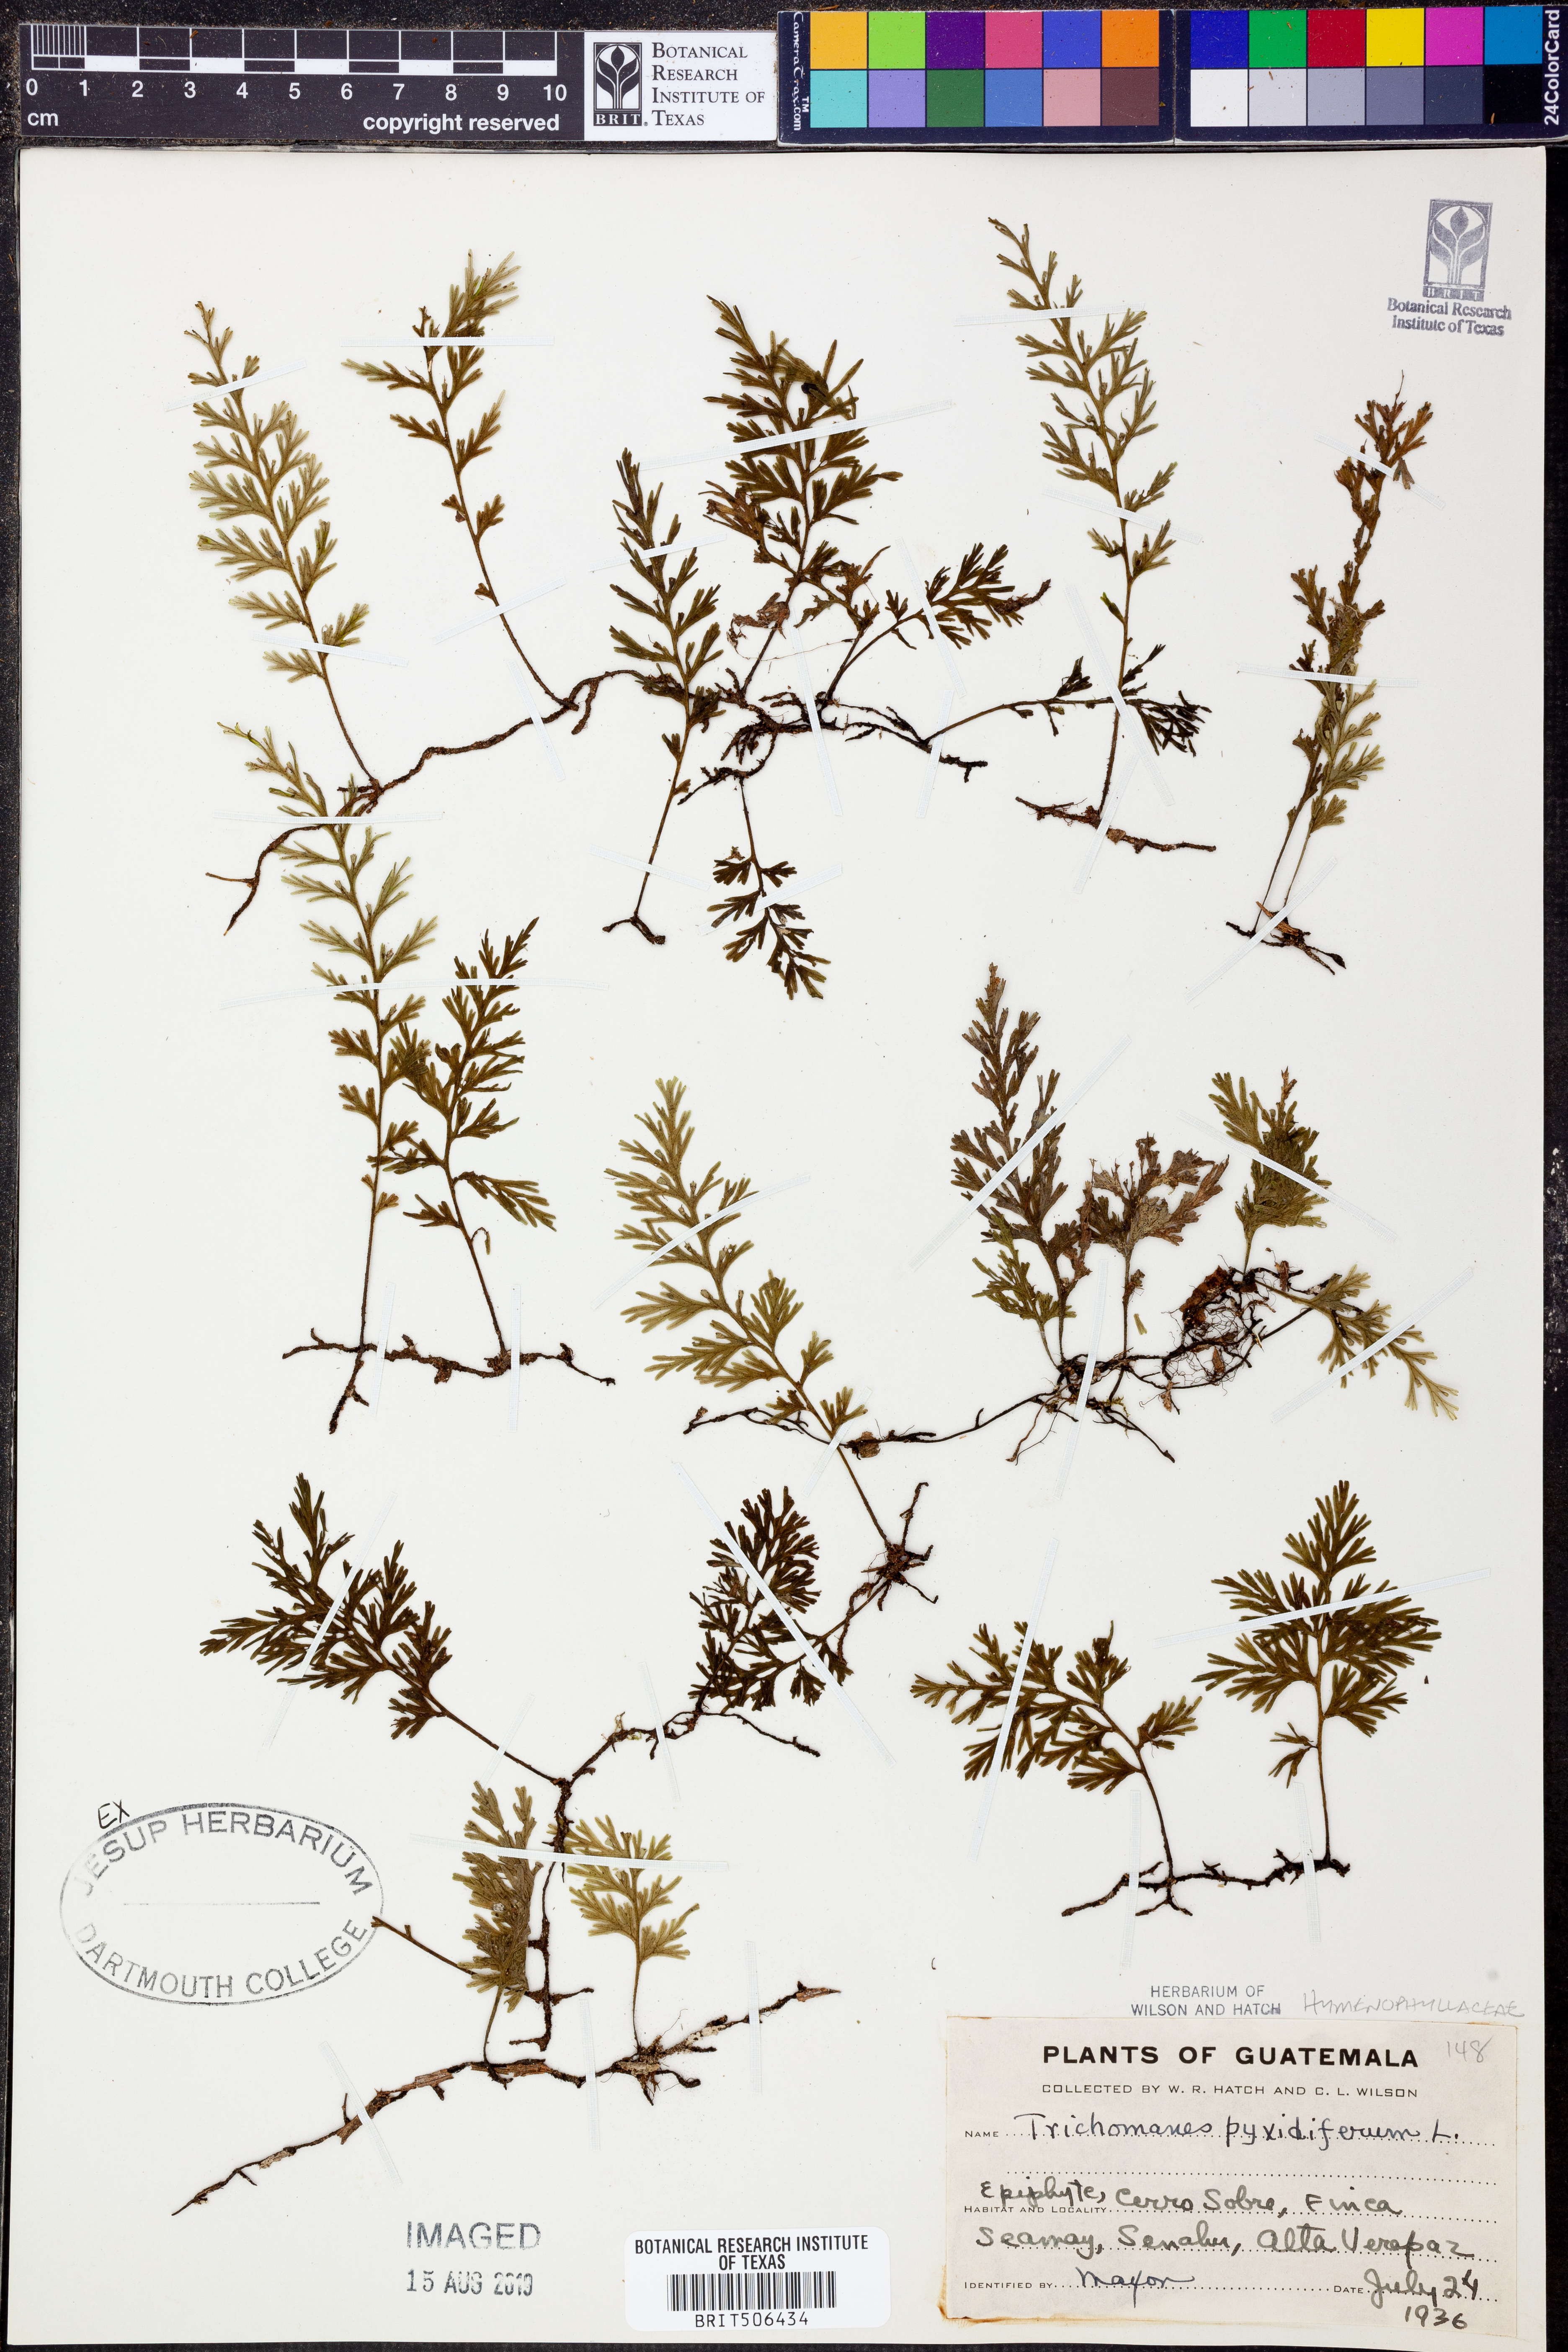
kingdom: Plantae
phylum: Tracheophyta
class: Polypodiopsida
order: Hymenophyllales
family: Hymenophyllaceae
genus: Polyphlebium
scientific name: Polyphlebium capillaceum
